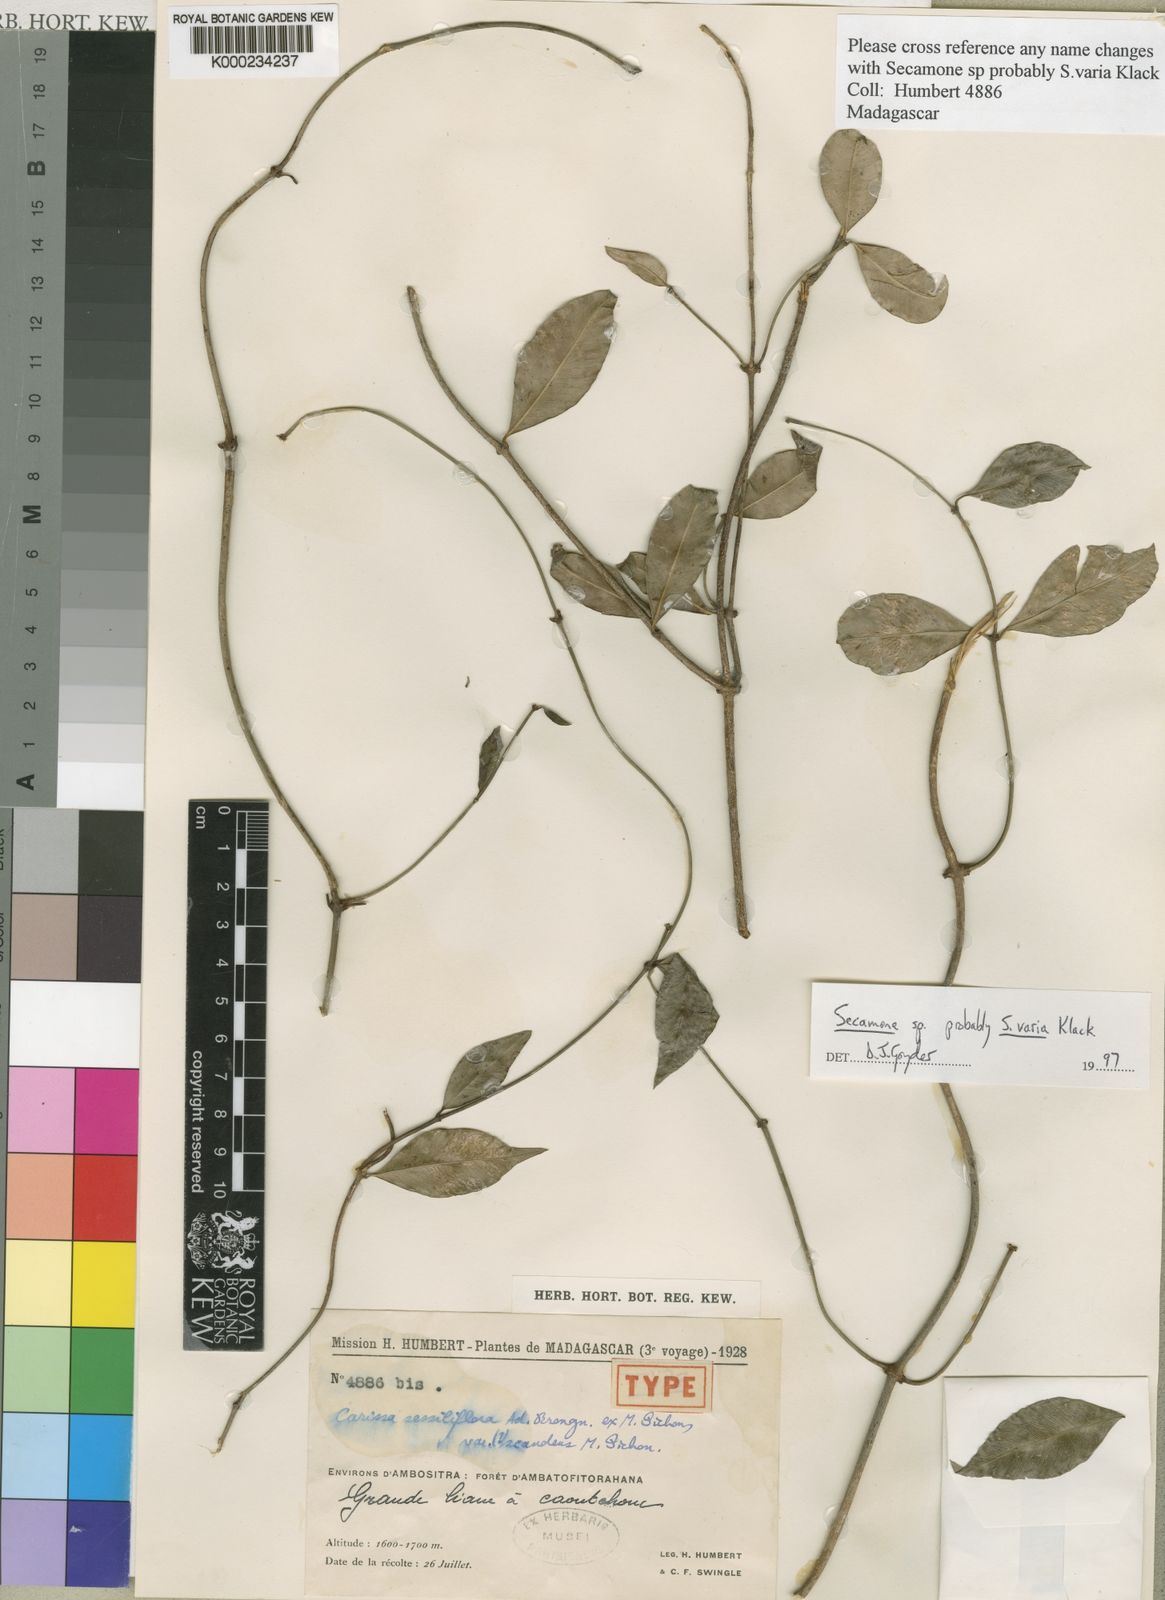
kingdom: Plantae
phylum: Tracheophyta
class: Magnoliopsida
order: Gentianales
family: Apocynaceae
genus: Secamone
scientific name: Secamone
